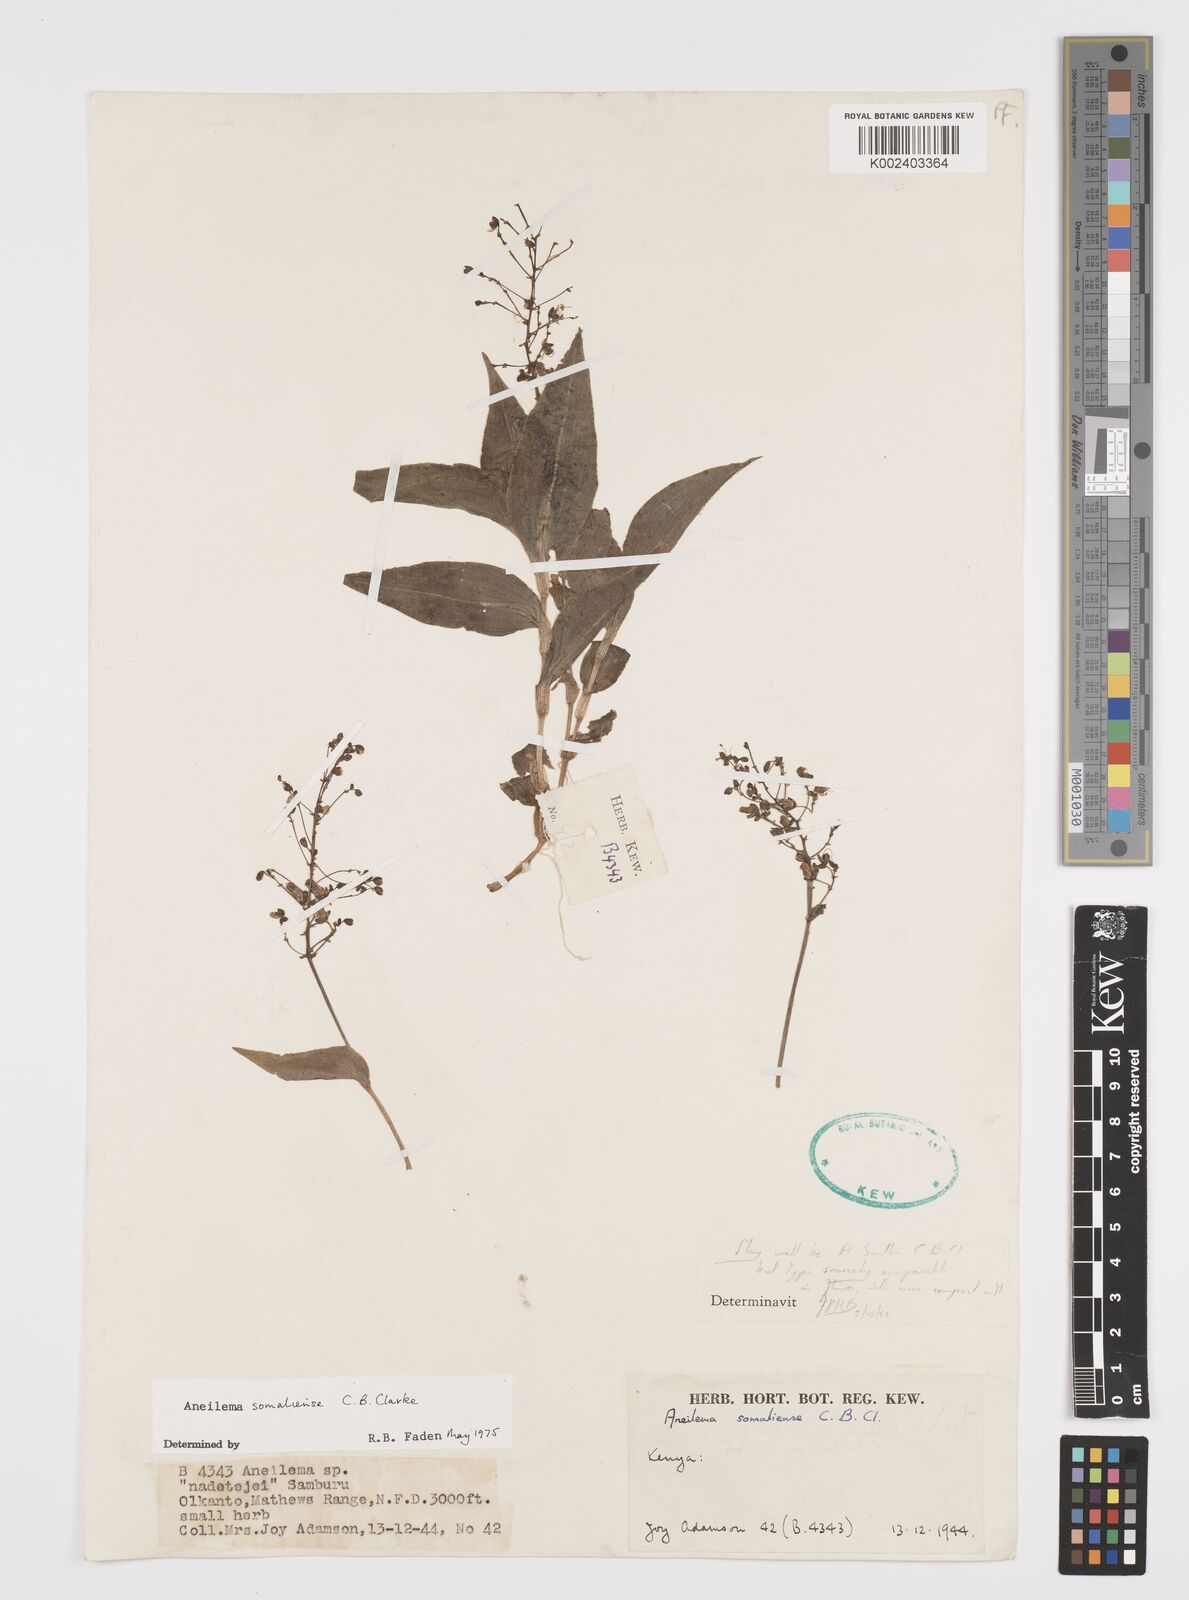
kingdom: Plantae
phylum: Tracheophyta
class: Liliopsida
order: Commelinales
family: Commelinaceae
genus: Aneilema
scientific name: Aneilema somaliense
